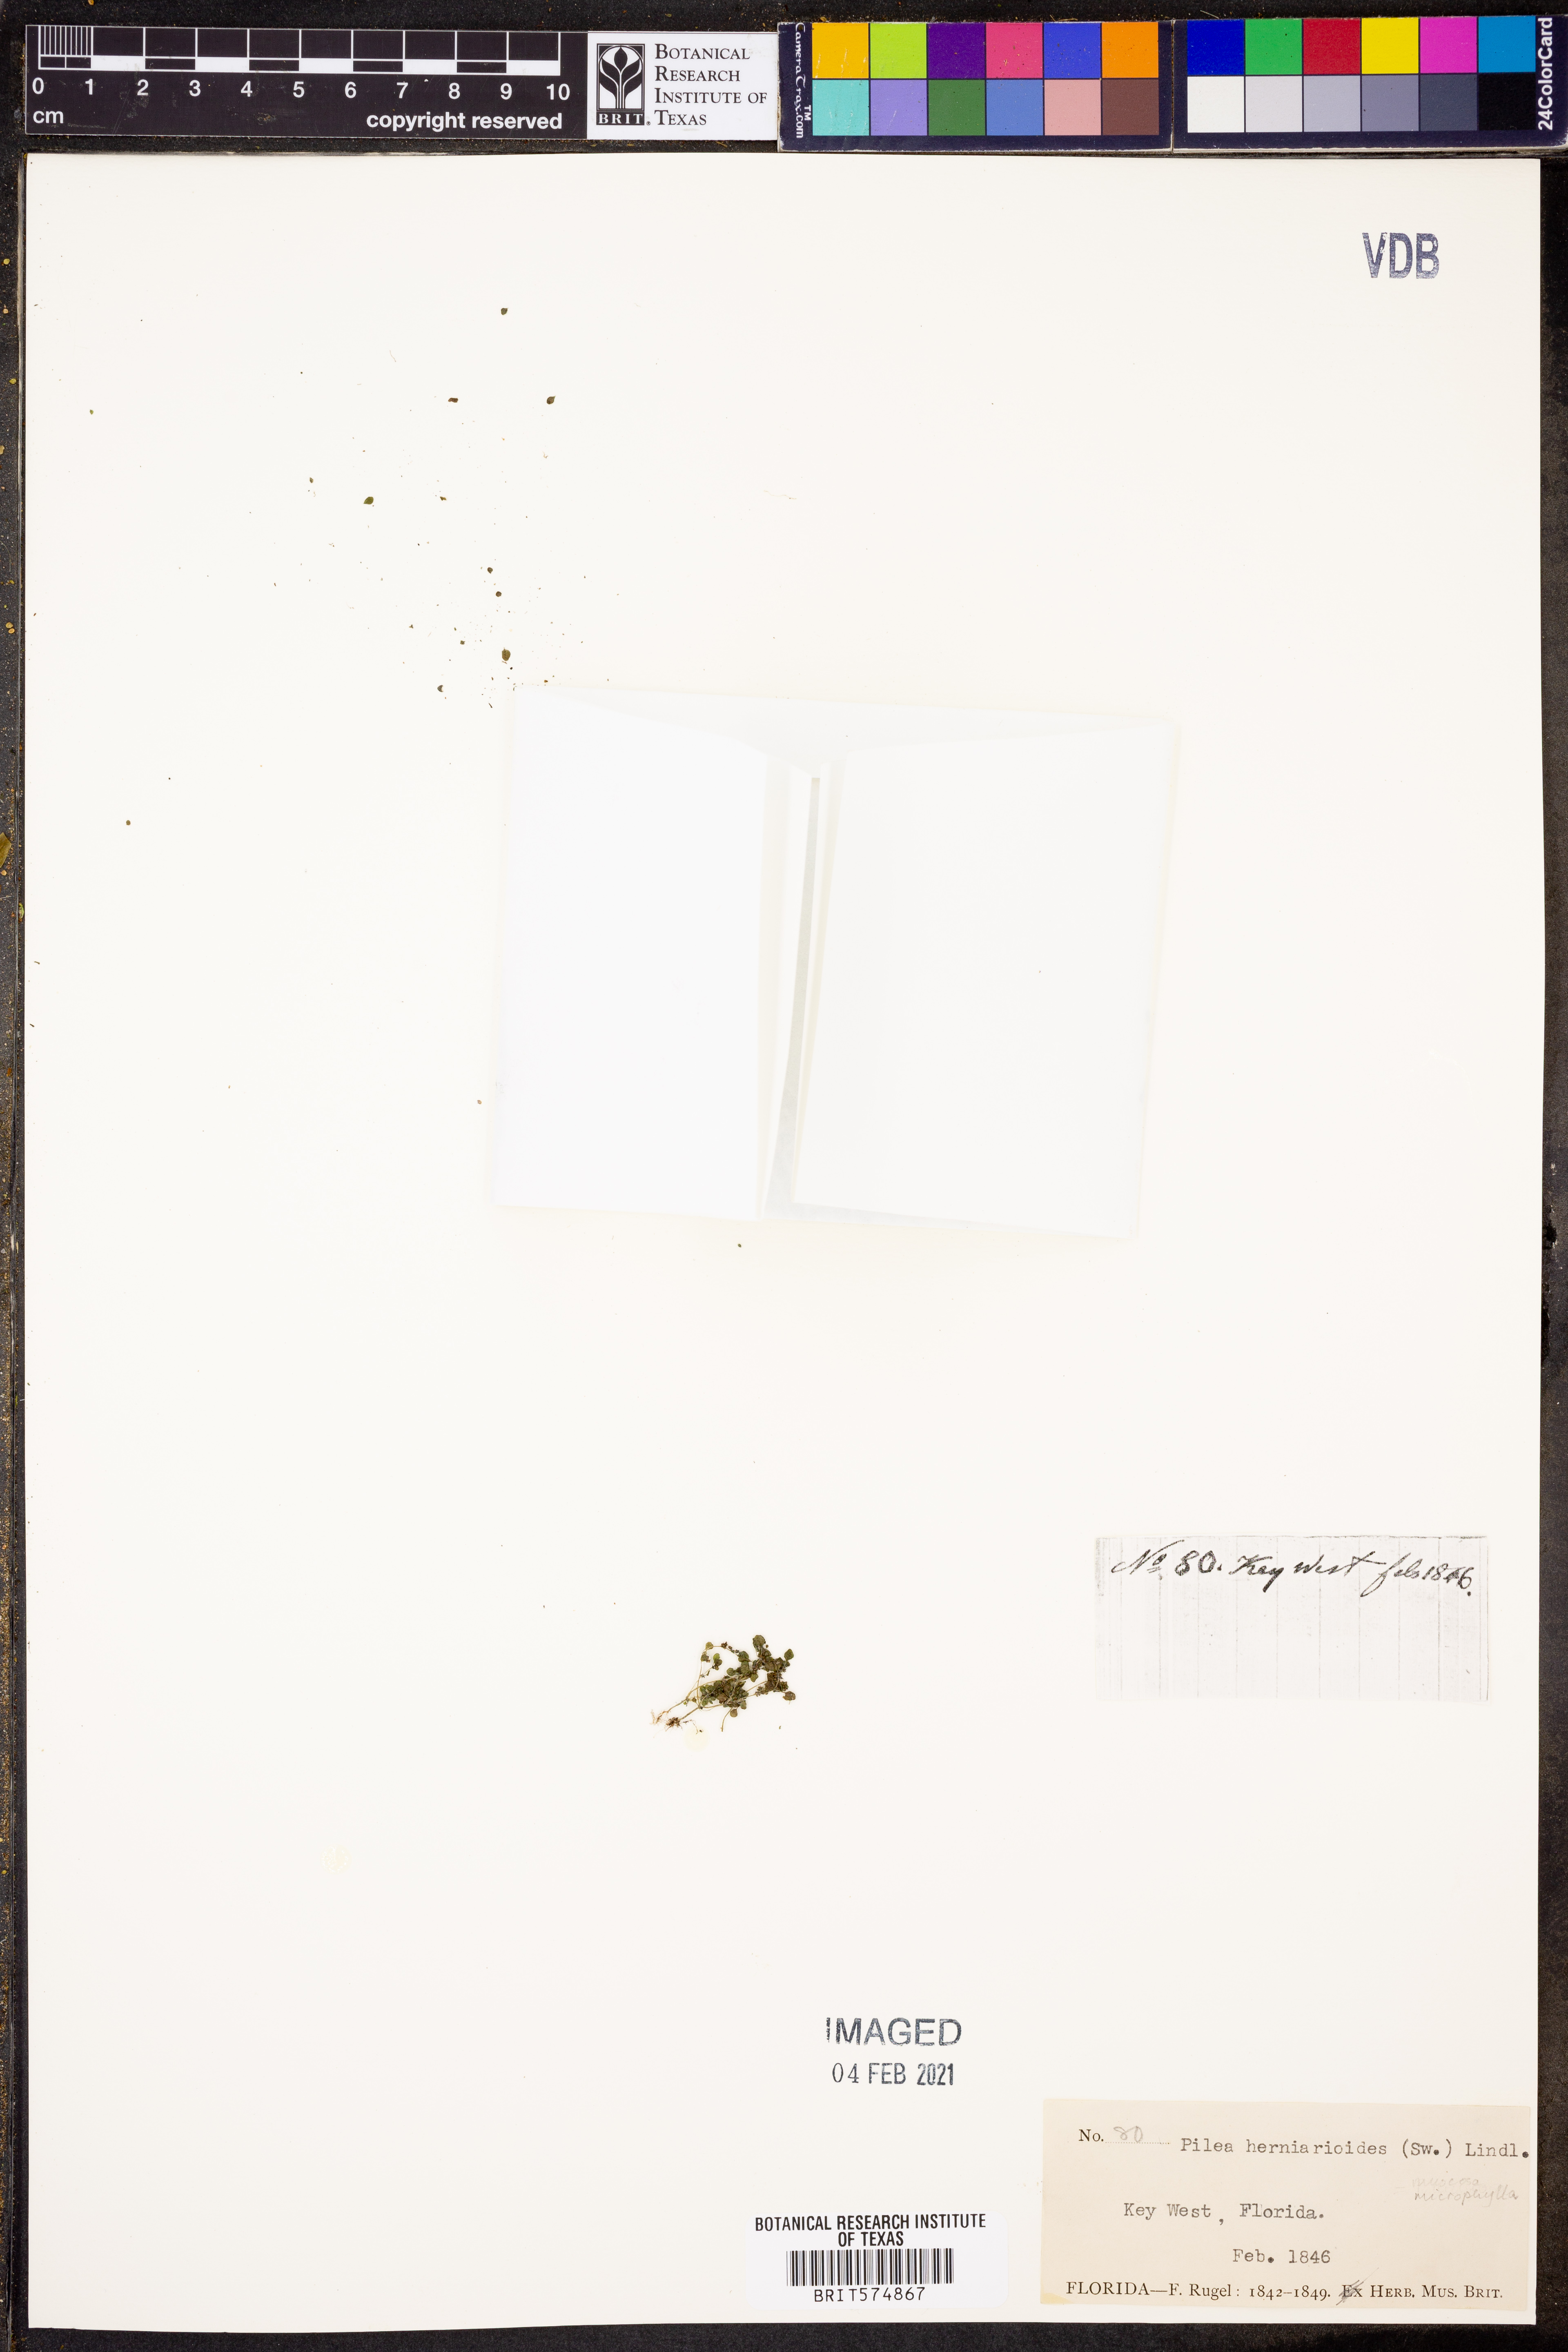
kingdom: Plantae
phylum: Tracheophyta
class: Magnoliopsida
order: Rosales
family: Urticaceae
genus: Pilea
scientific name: Pilea herniarioides
